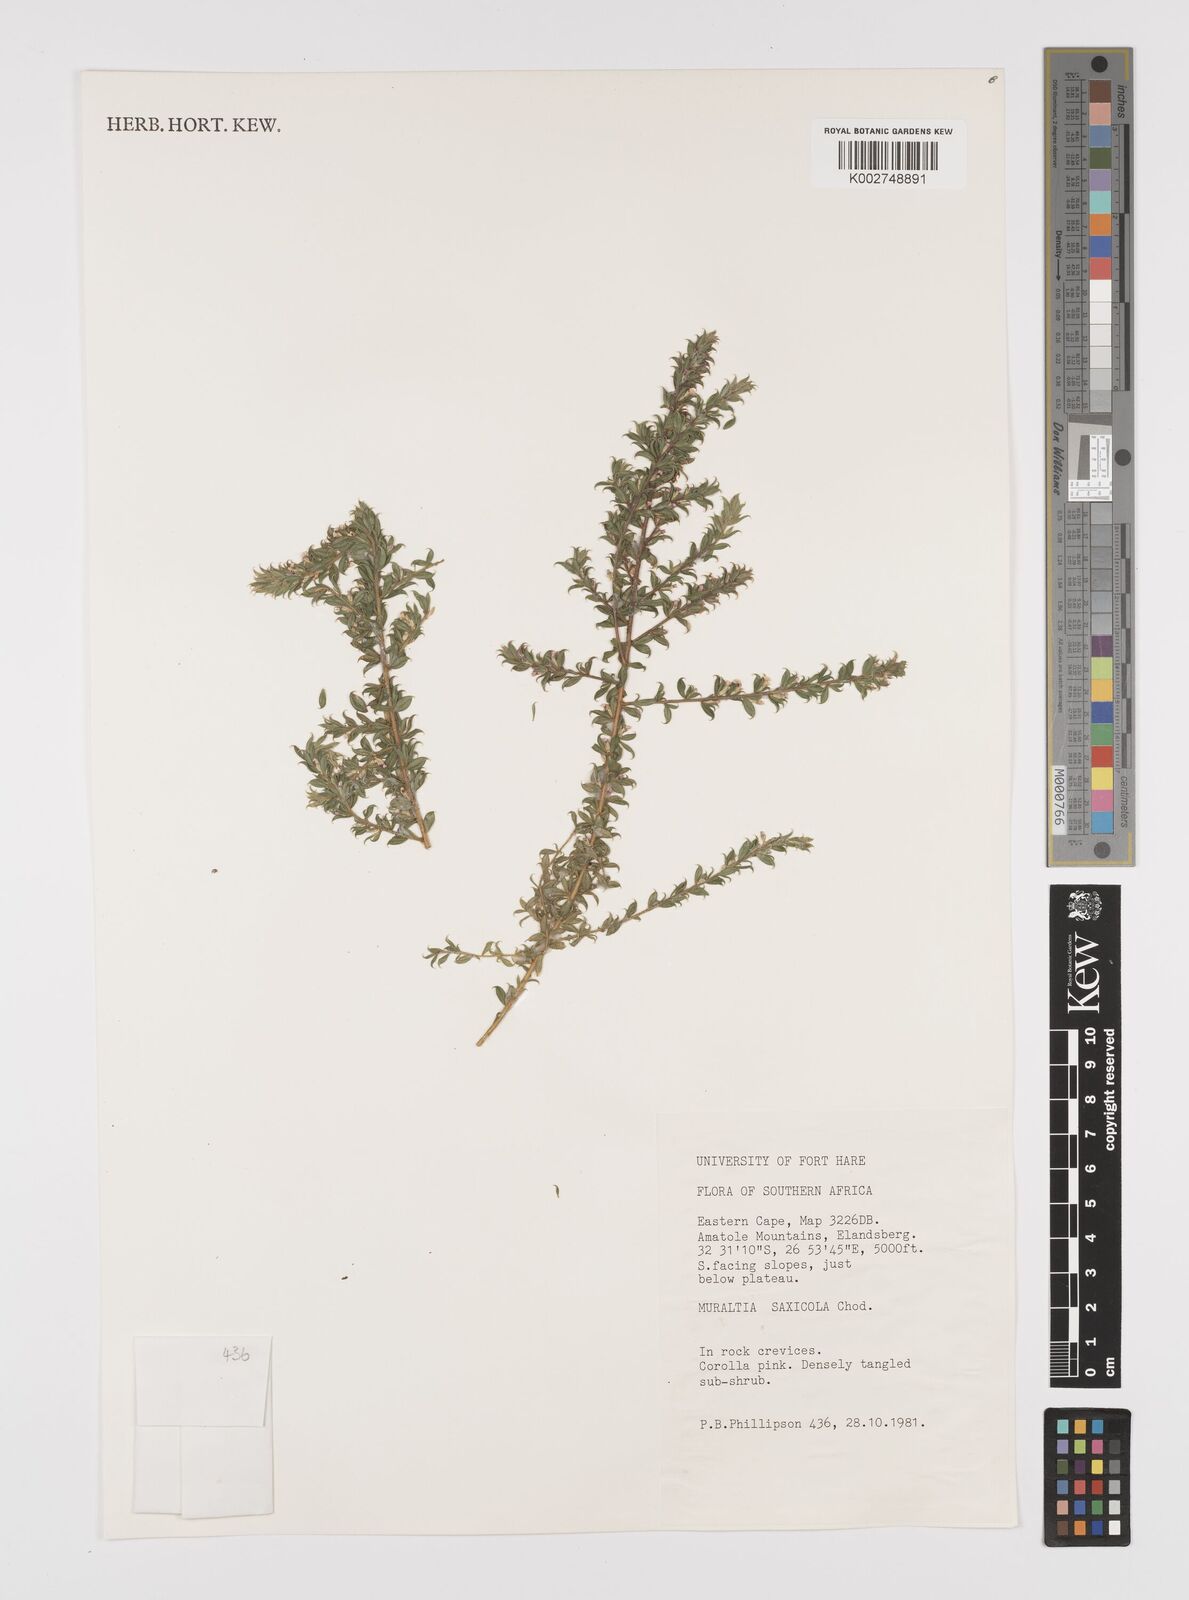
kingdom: Plantae
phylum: Tracheophyta
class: Magnoliopsida
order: Fabales
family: Polygalaceae
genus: Muraltia
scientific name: Muraltia saxicola
